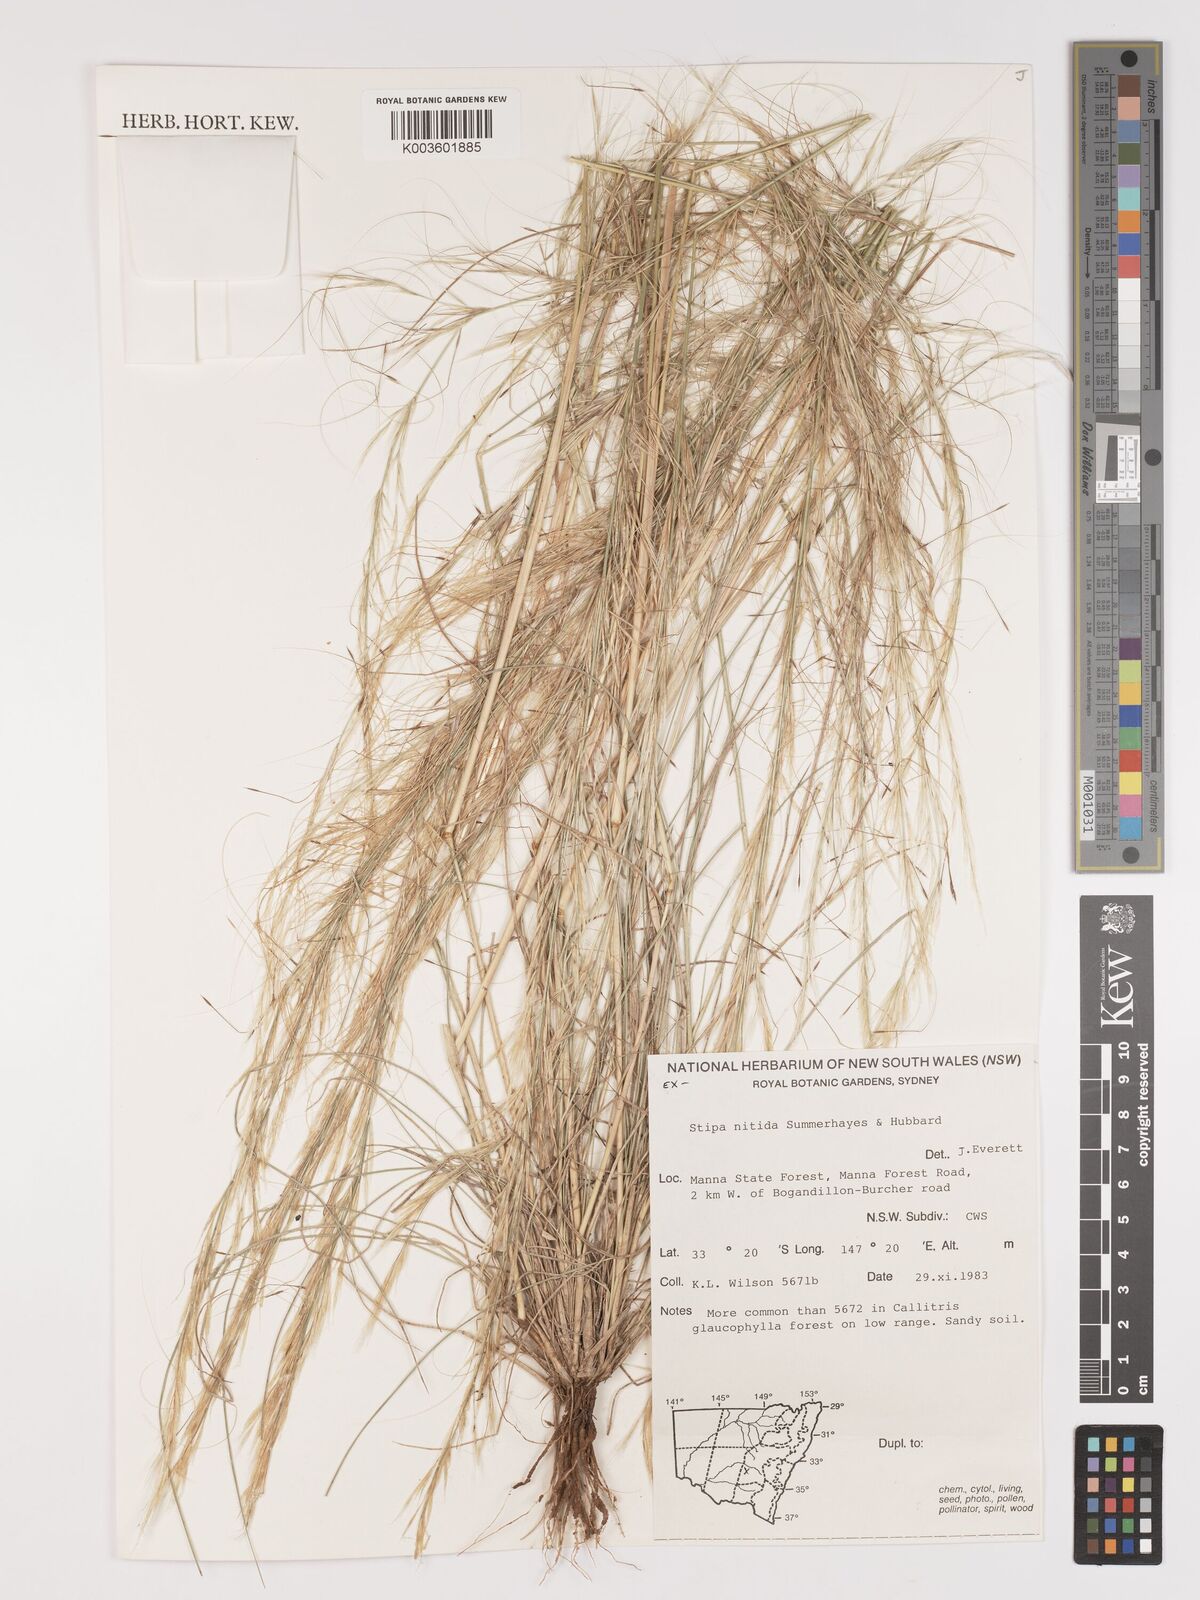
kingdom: Plantae
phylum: Tracheophyta
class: Liliopsida
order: Poales
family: Poaceae
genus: Austrostipa
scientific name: Austrostipa nitida
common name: Balcarra grass
